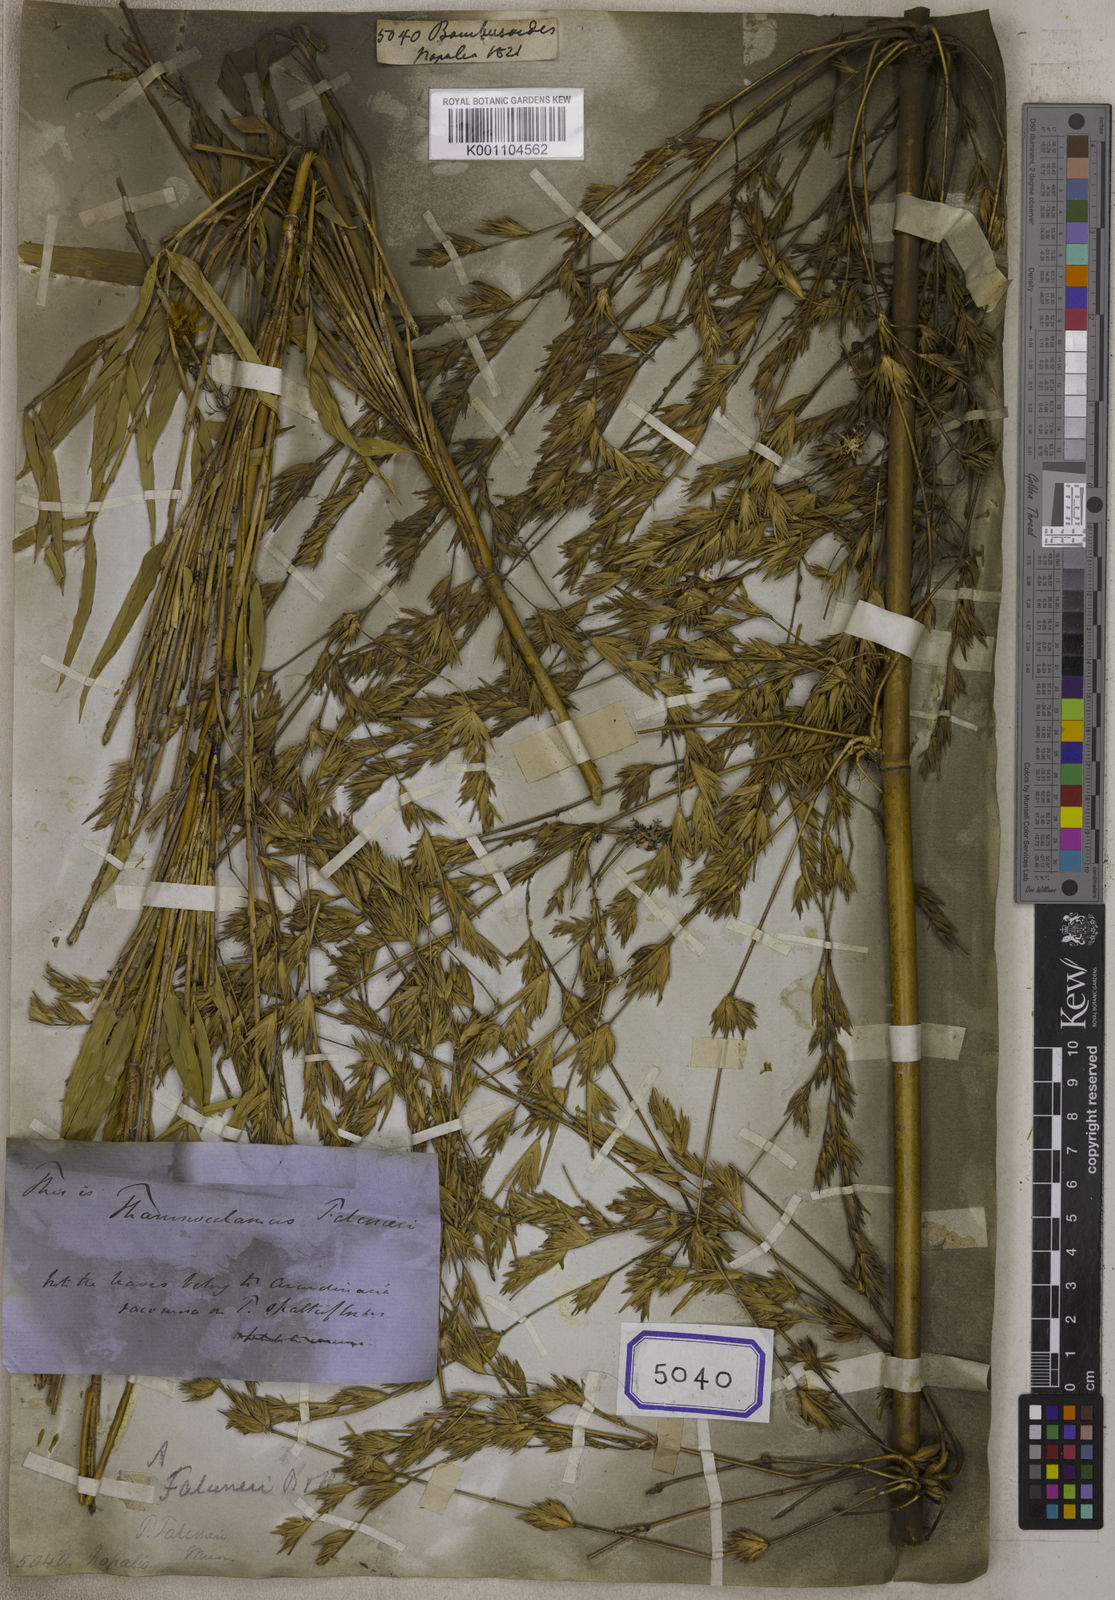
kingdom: Plantae
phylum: Tracheophyta
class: Liliopsida
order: Poales
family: Poaceae
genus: Bambusa
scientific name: Bambusa
